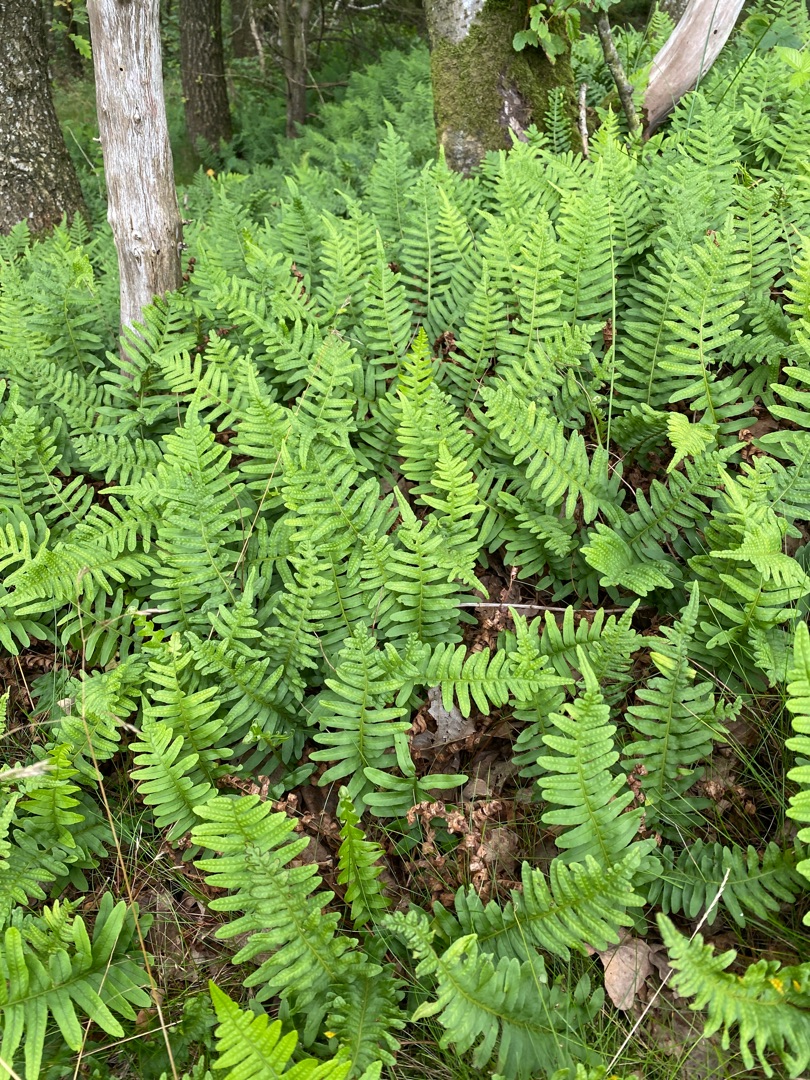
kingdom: Plantae
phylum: Tracheophyta
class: Polypodiopsida
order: Polypodiales
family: Polypodiaceae
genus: Polypodium
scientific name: Polypodium vulgare
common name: Almindelig engelsød
